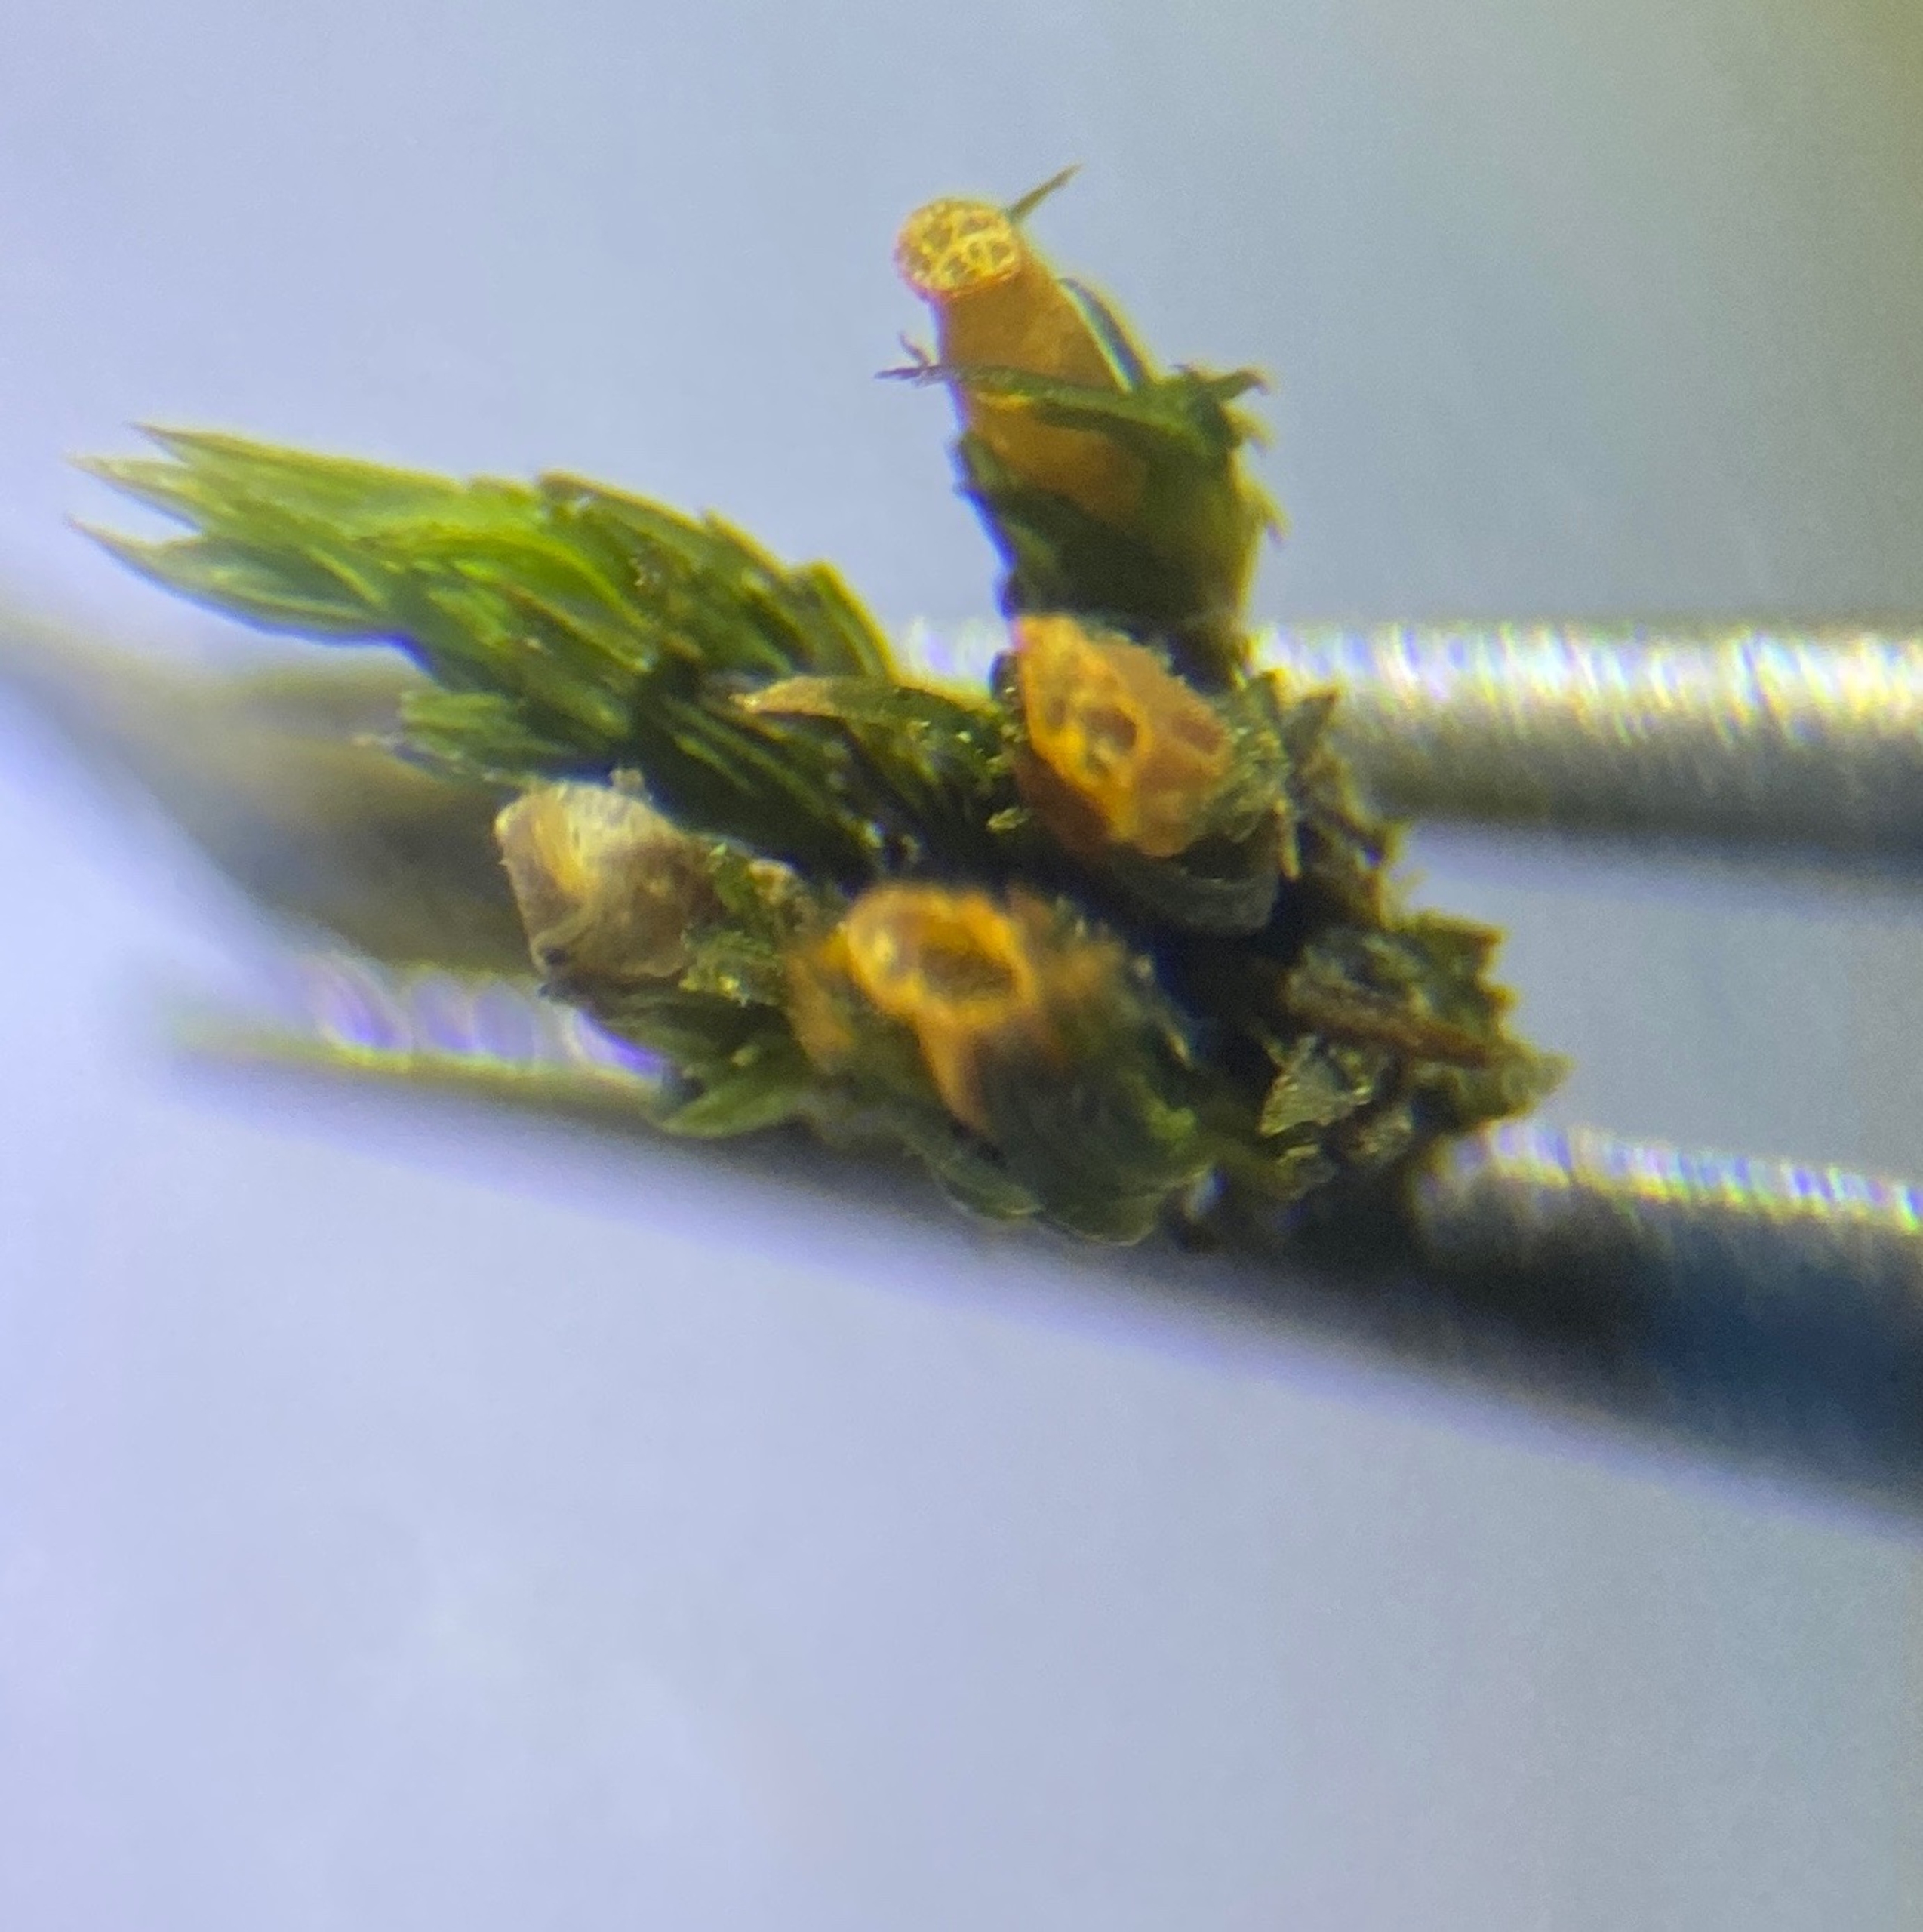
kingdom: Plantae
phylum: Bryophyta
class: Bryopsida
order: Orthotrichales
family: Orthotrichaceae
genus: Lewinskya
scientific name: Lewinskya striata
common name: Glatkapslet furehætte
